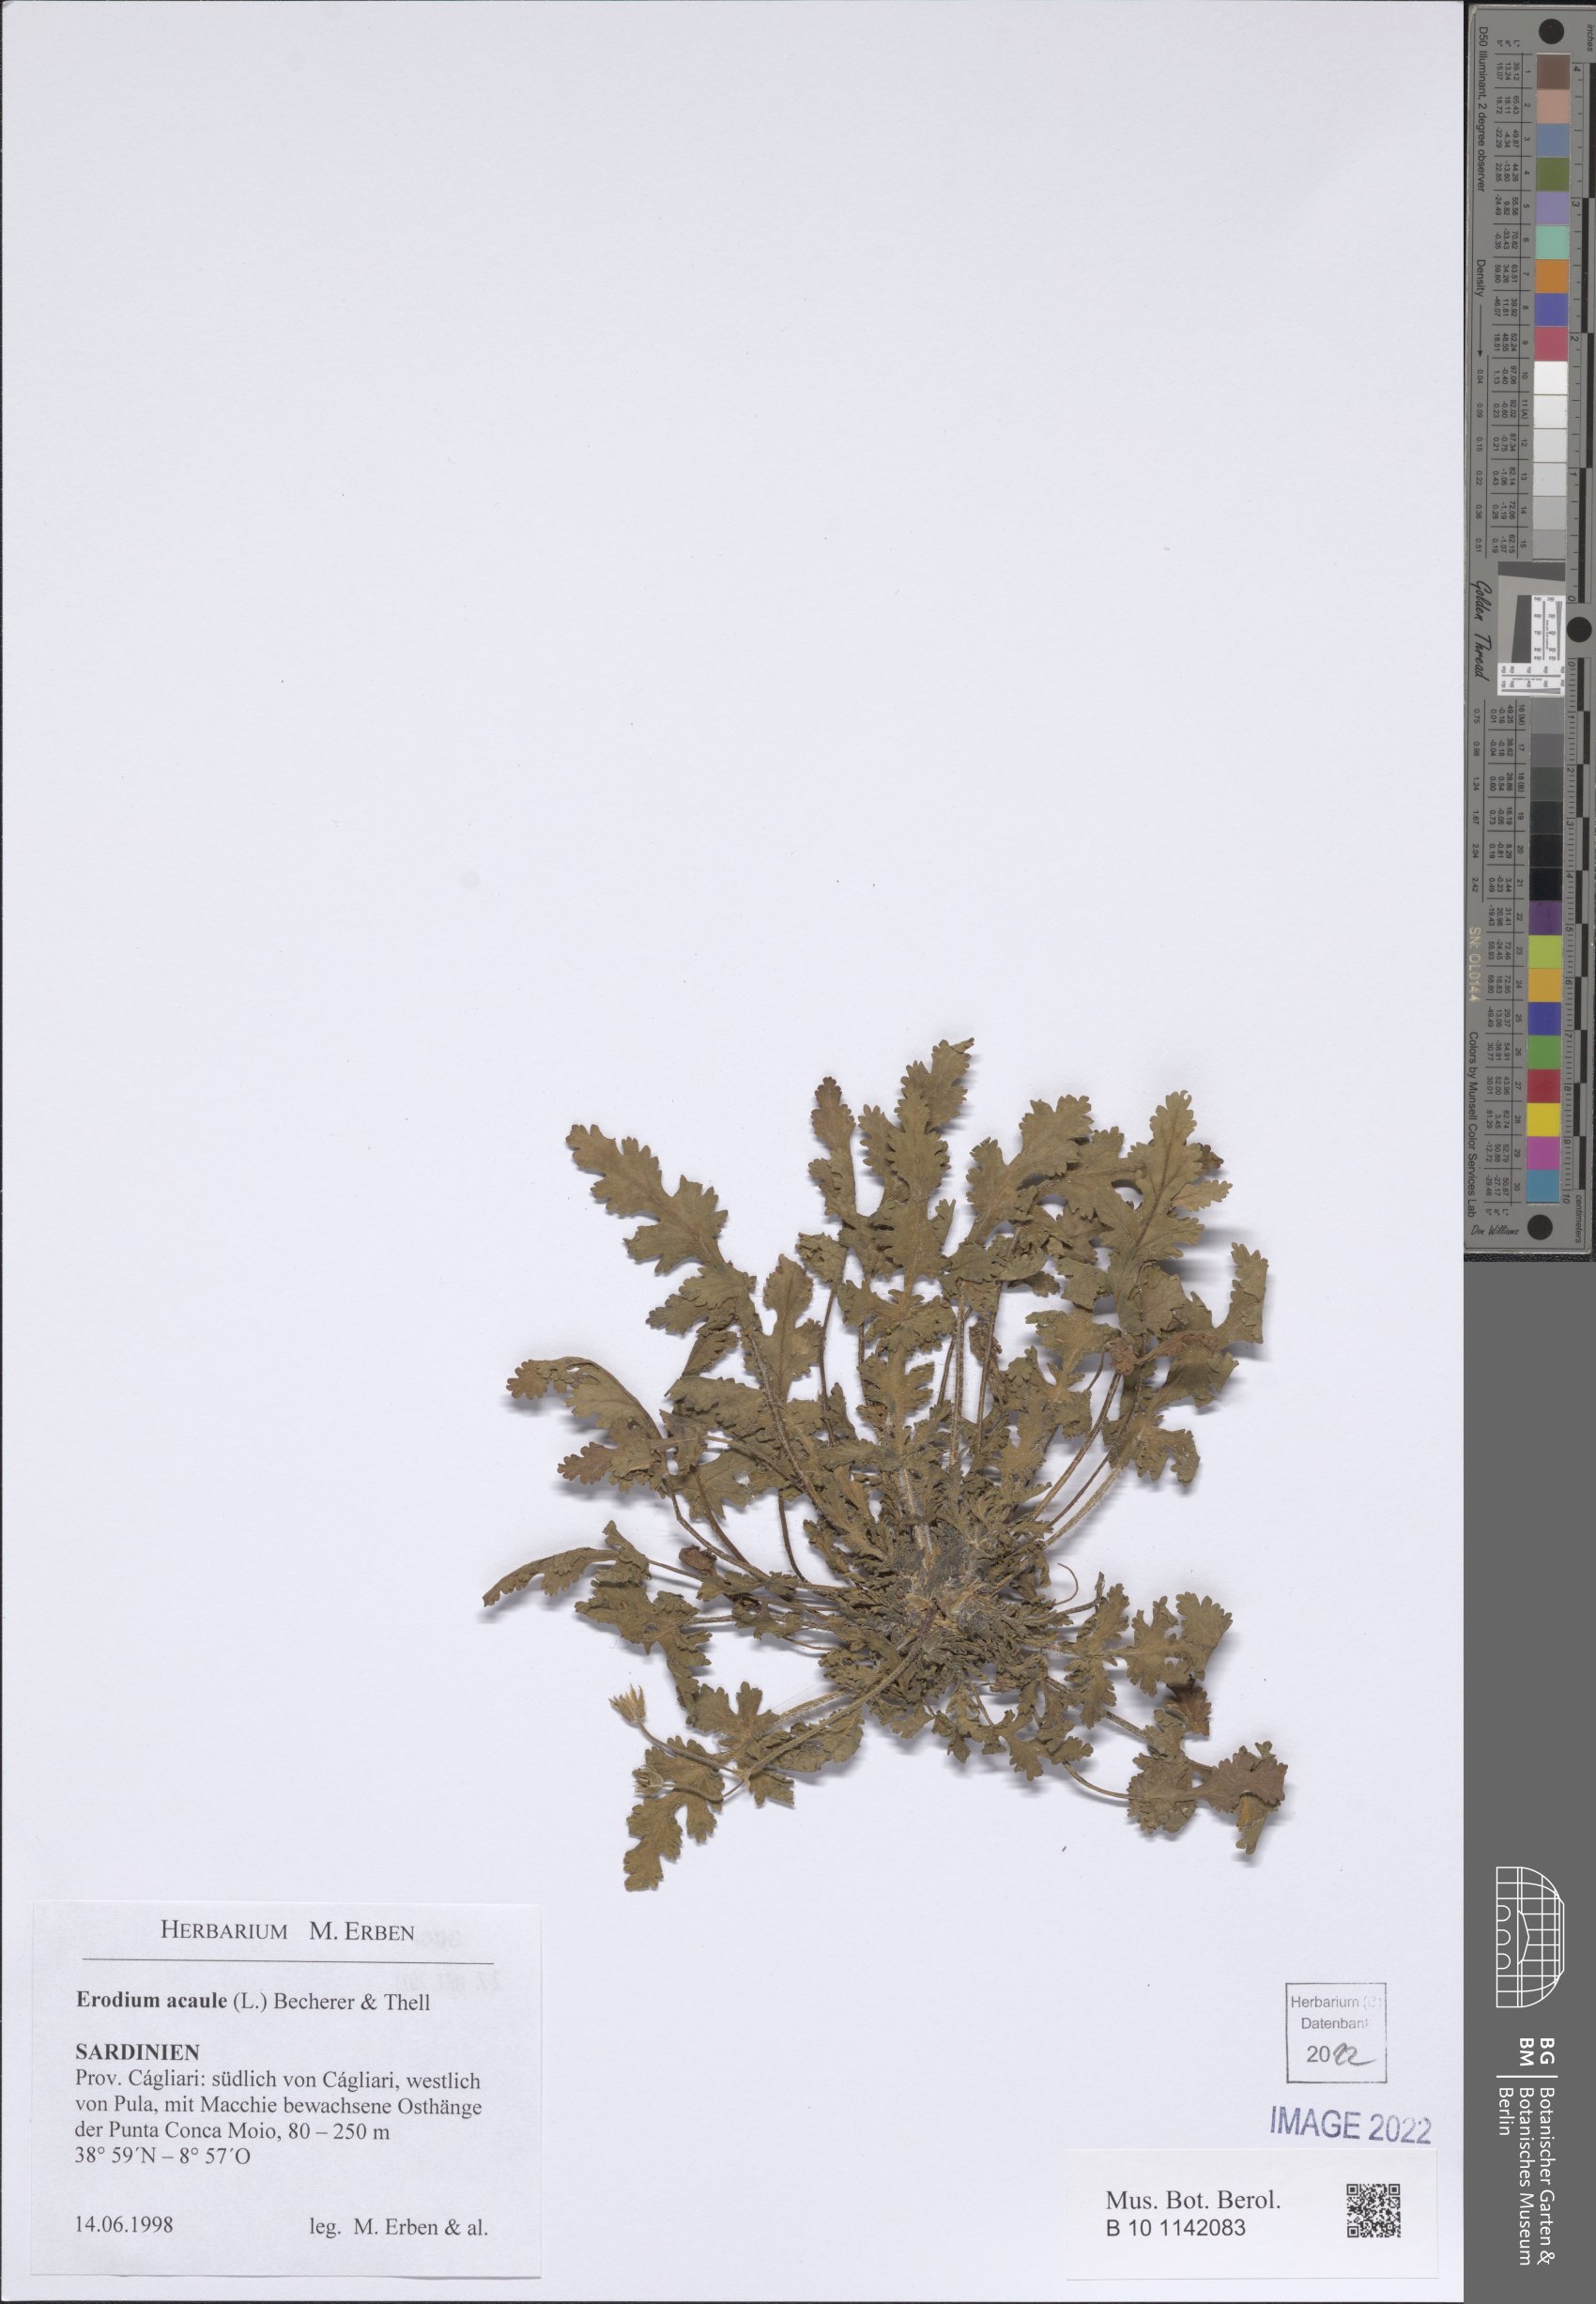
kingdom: Plantae
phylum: Tracheophyta
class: Magnoliopsida
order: Geraniales
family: Geraniaceae
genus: Erodium
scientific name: Erodium acaule
